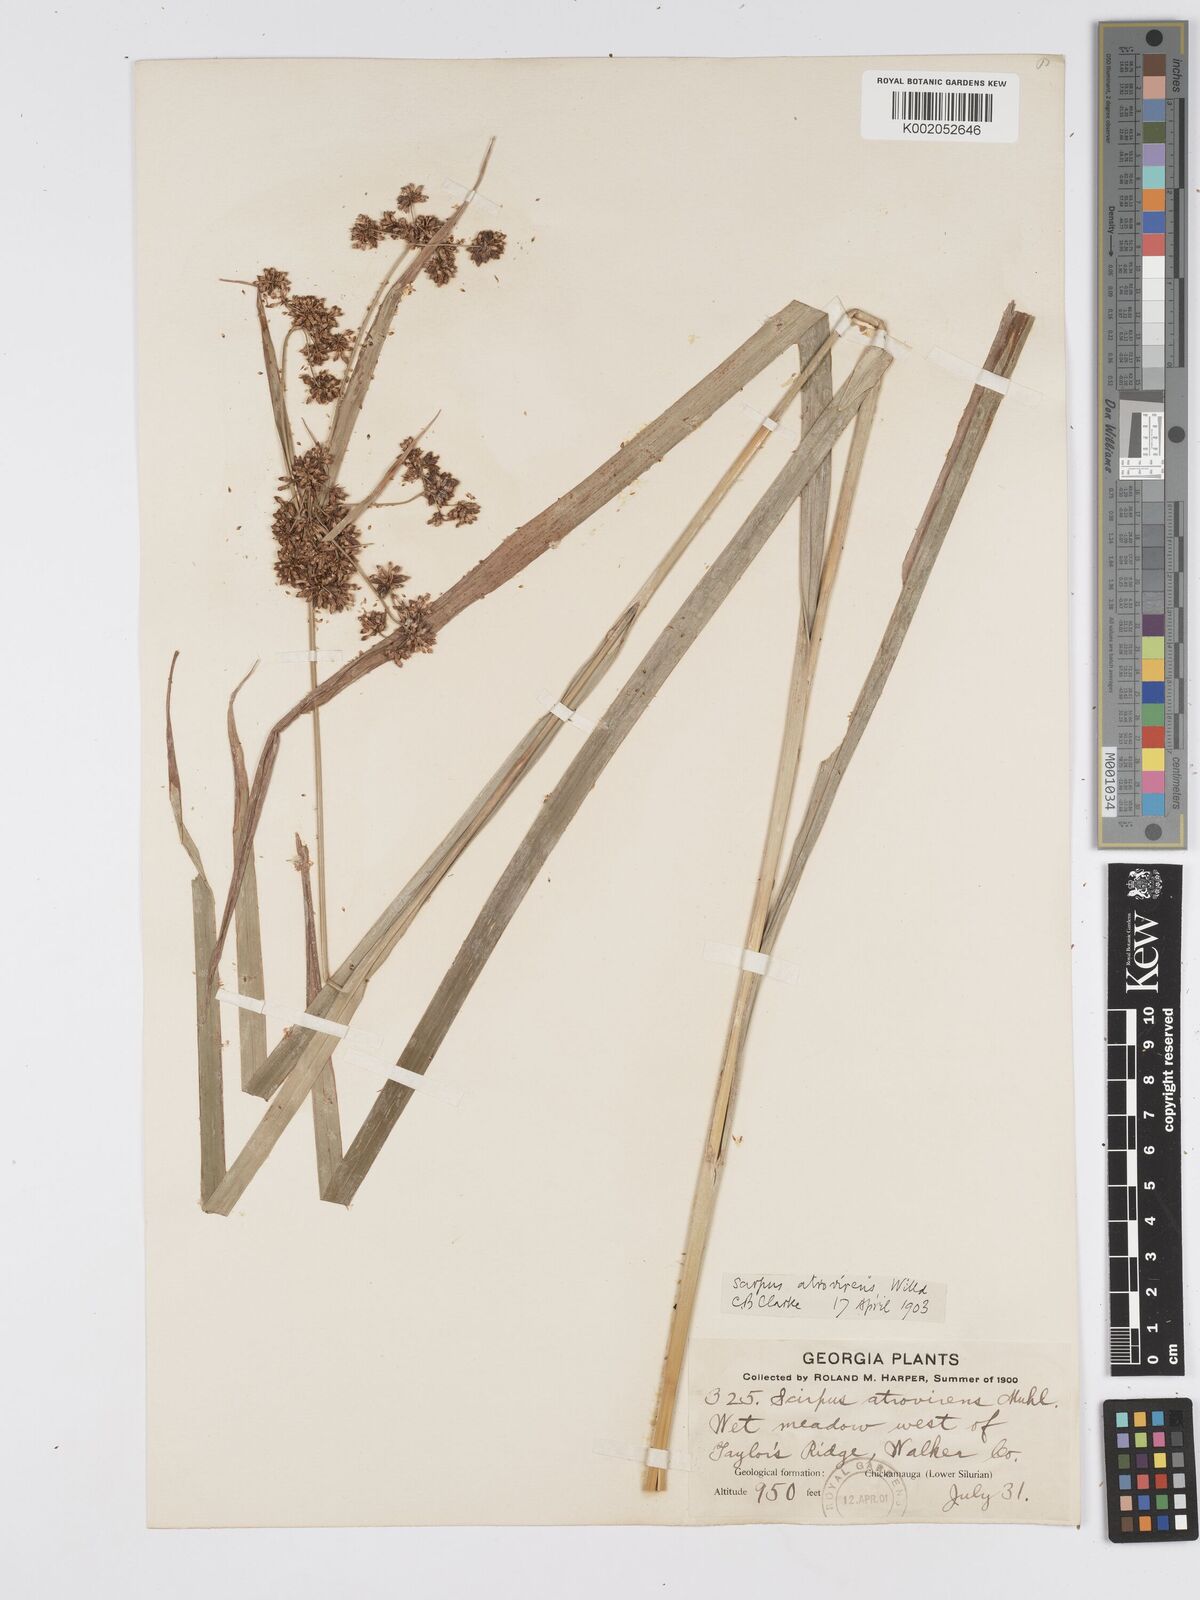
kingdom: Plantae
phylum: Tracheophyta
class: Liliopsida
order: Poales
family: Cyperaceae
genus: Scirpus
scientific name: Scirpus atrovirens
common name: Black bulrush
